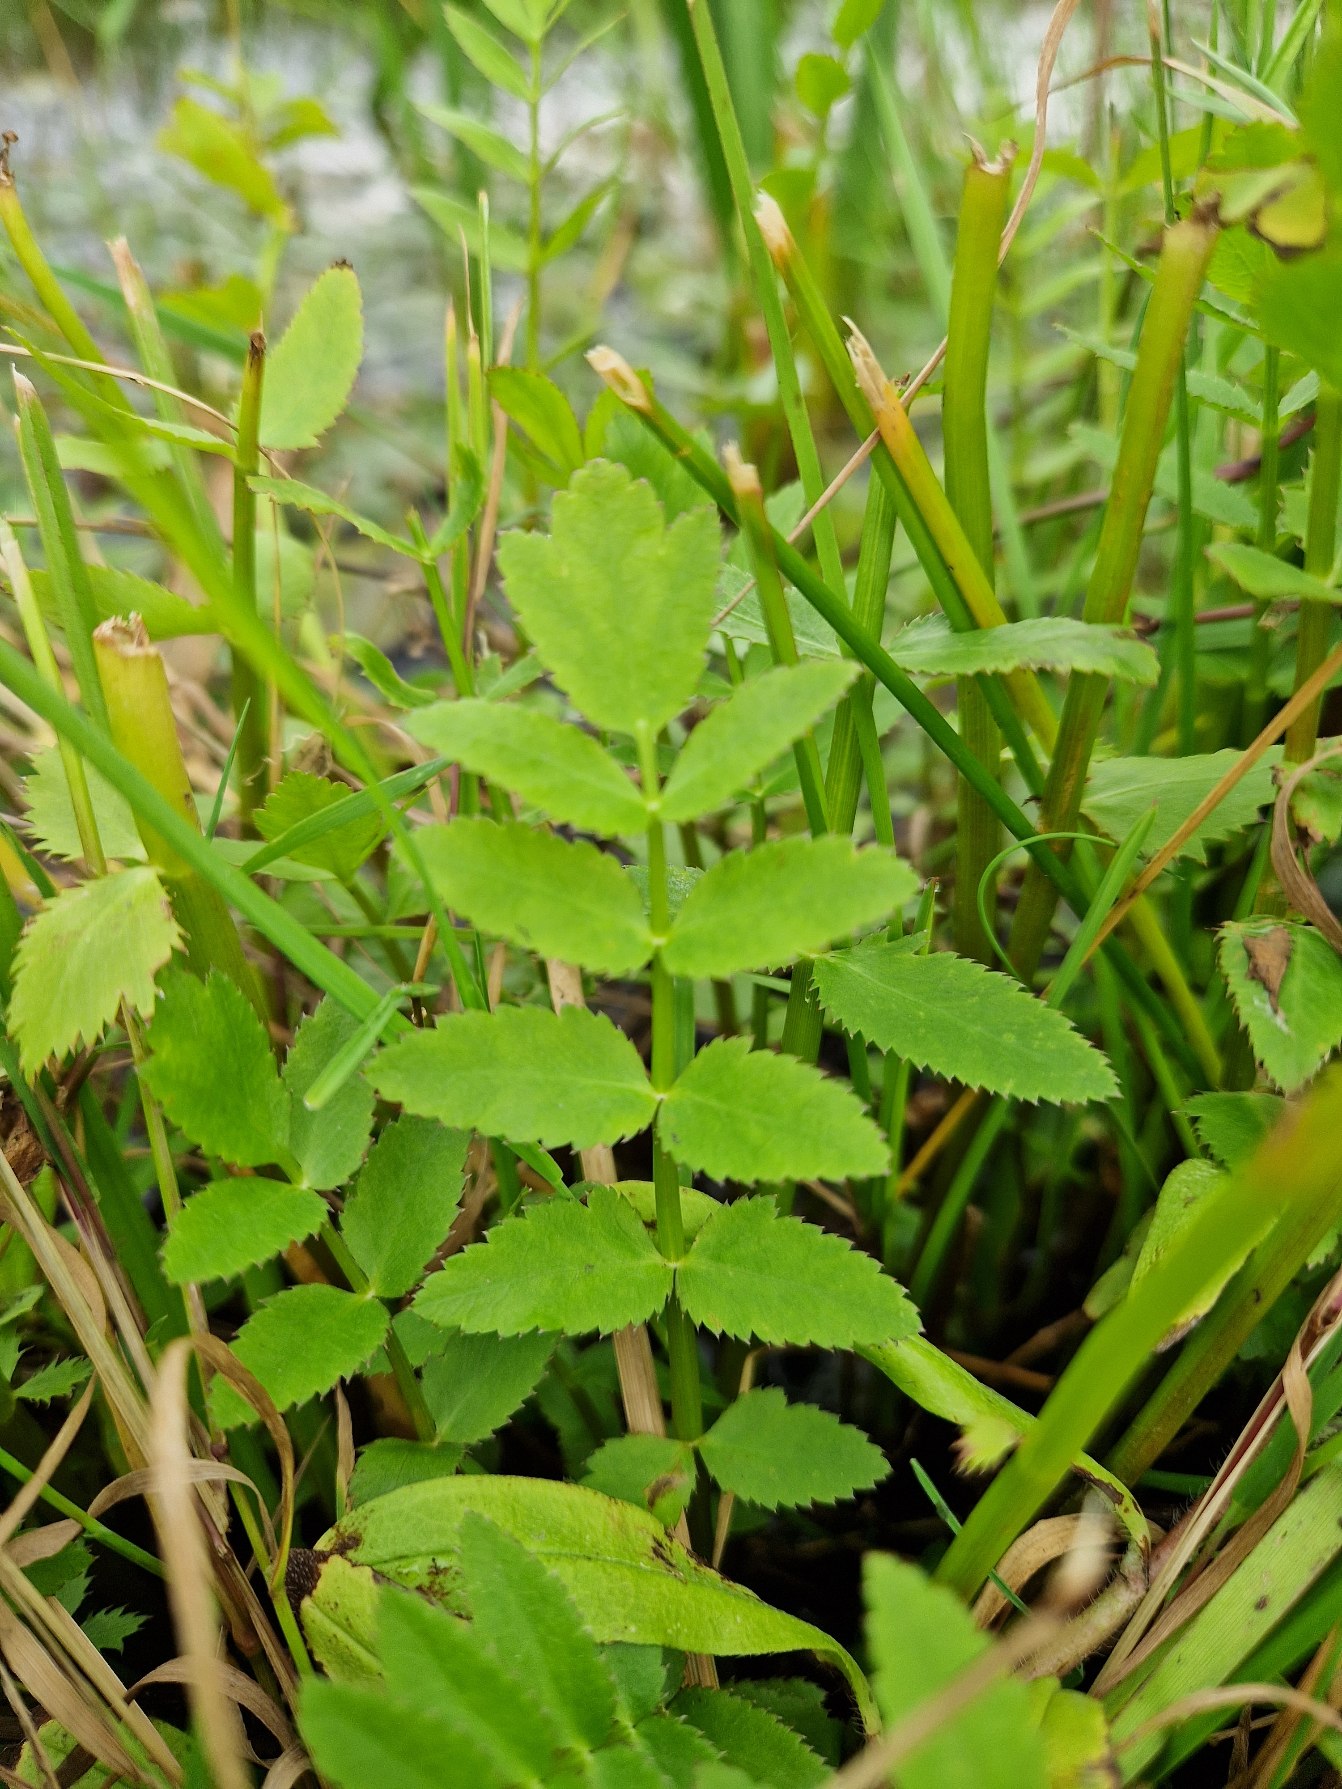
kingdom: Plantae
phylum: Tracheophyta
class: Magnoliopsida
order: Apiales
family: Apiaceae
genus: Berula
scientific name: Berula erecta
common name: Sideskærm
